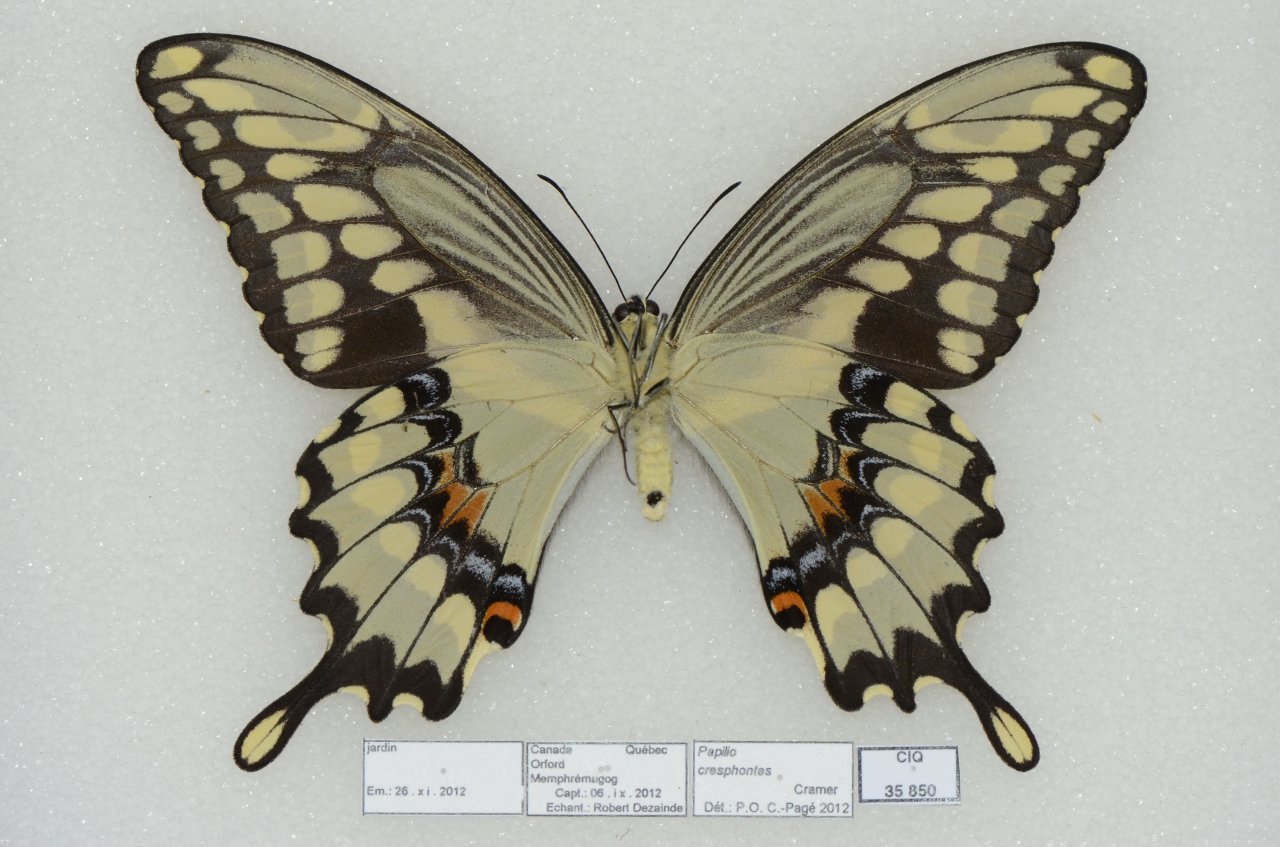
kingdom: Animalia
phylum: Arthropoda
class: Insecta
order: Lepidoptera
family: Papilionidae
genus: Papilio
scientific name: Papilio cresphontes
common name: Eastern Giant Swallowtail
